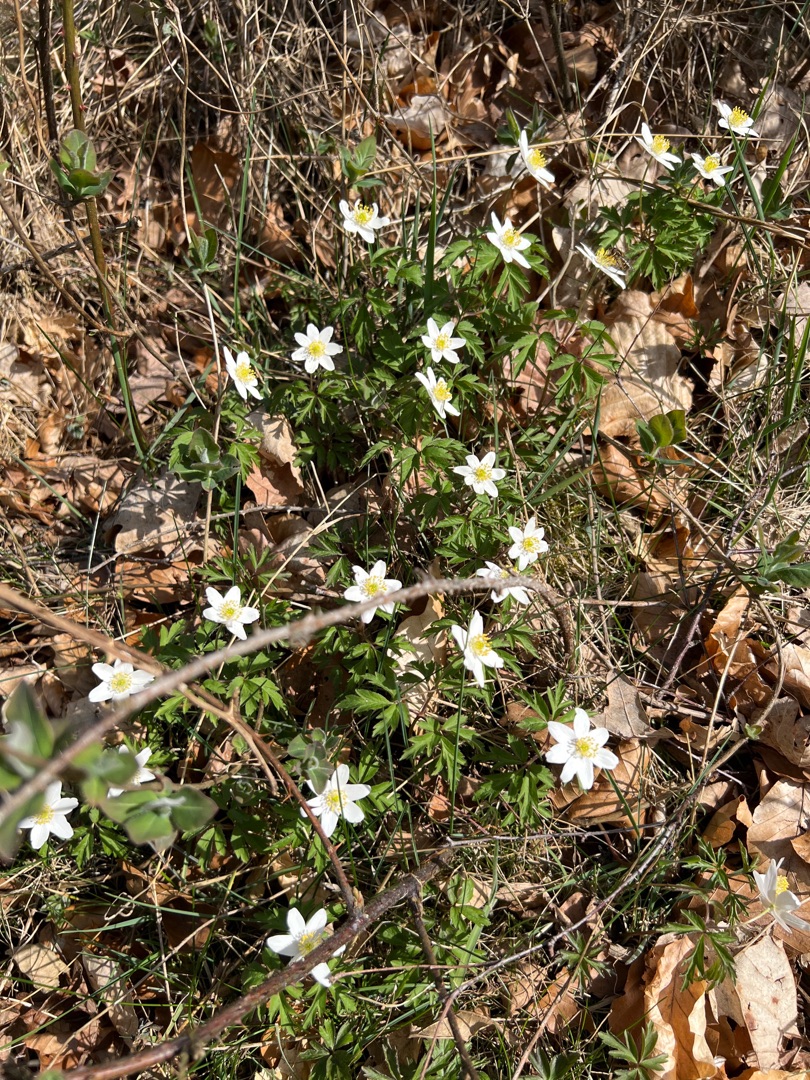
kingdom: Plantae
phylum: Tracheophyta
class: Magnoliopsida
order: Ranunculales
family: Ranunculaceae
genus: Anemone
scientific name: Anemone nemorosa
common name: Hvid anemone
